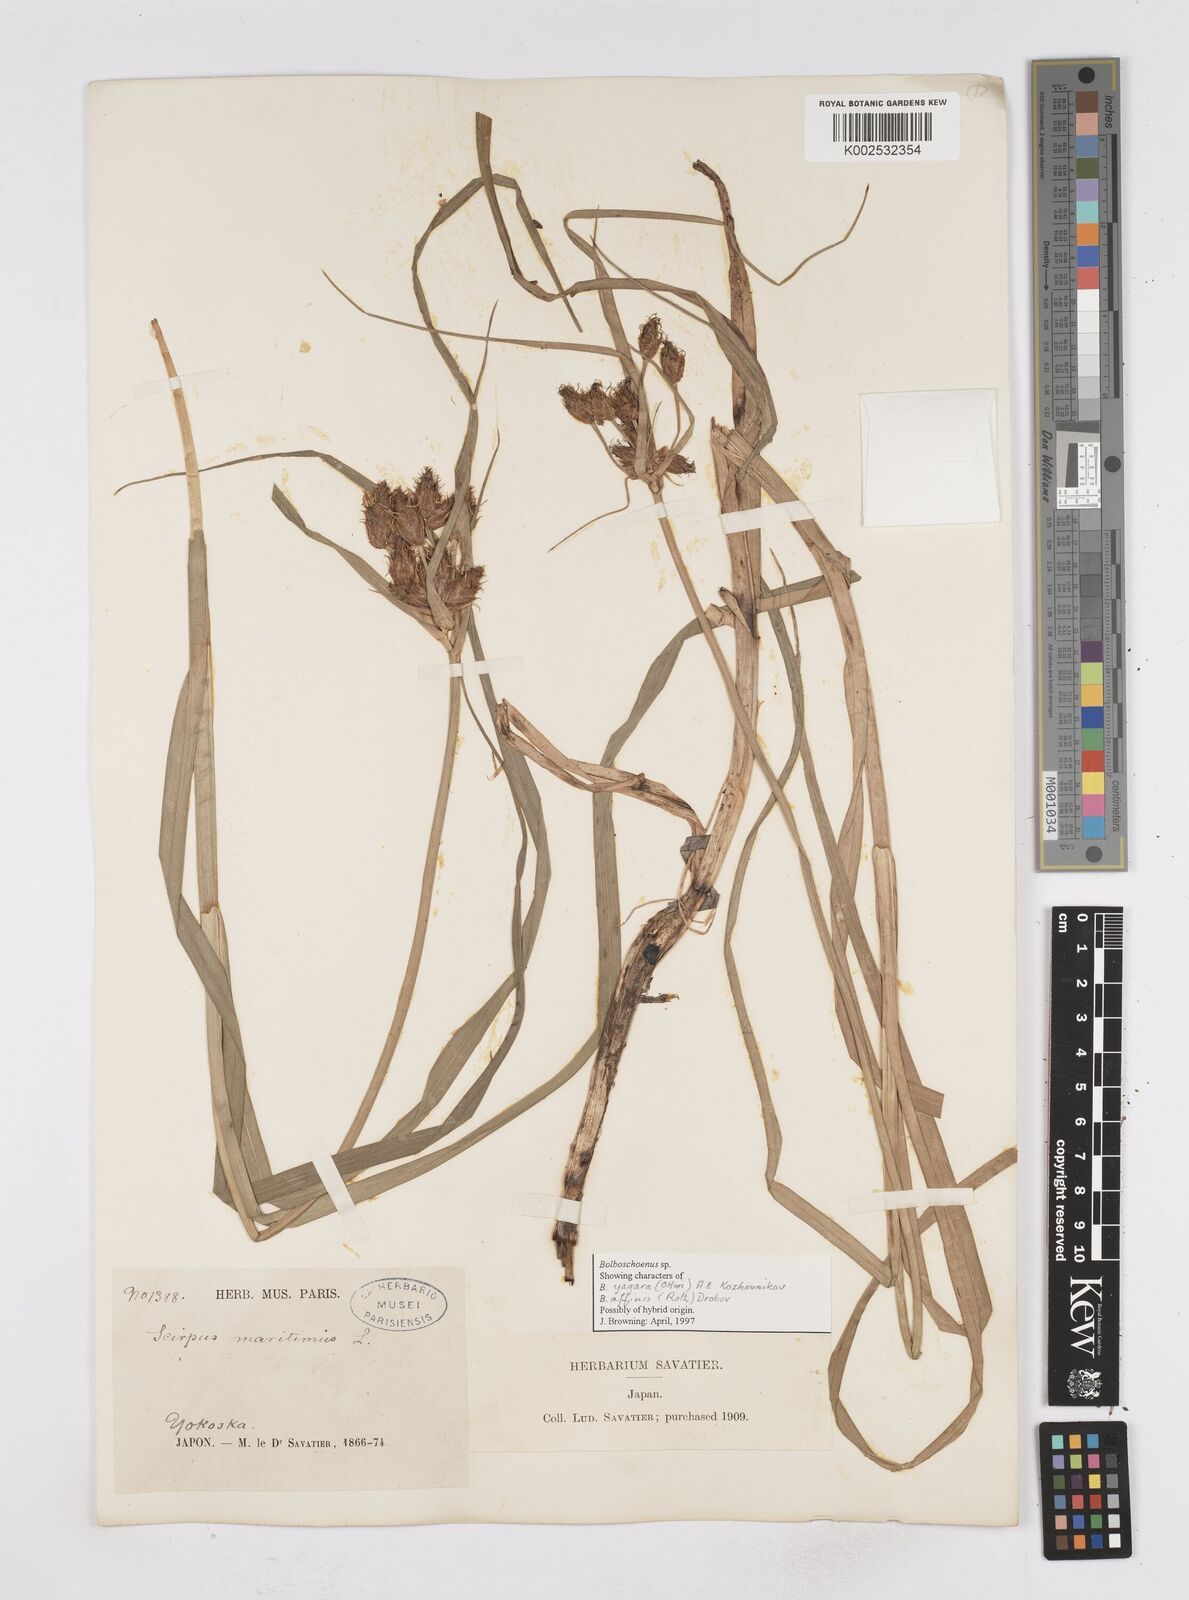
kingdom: Plantae
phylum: Tracheophyta
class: Liliopsida
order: Poales
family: Cyperaceae
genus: Bolboschoenus
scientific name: Bolboschoenus maritimus
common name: Sea club-rush
